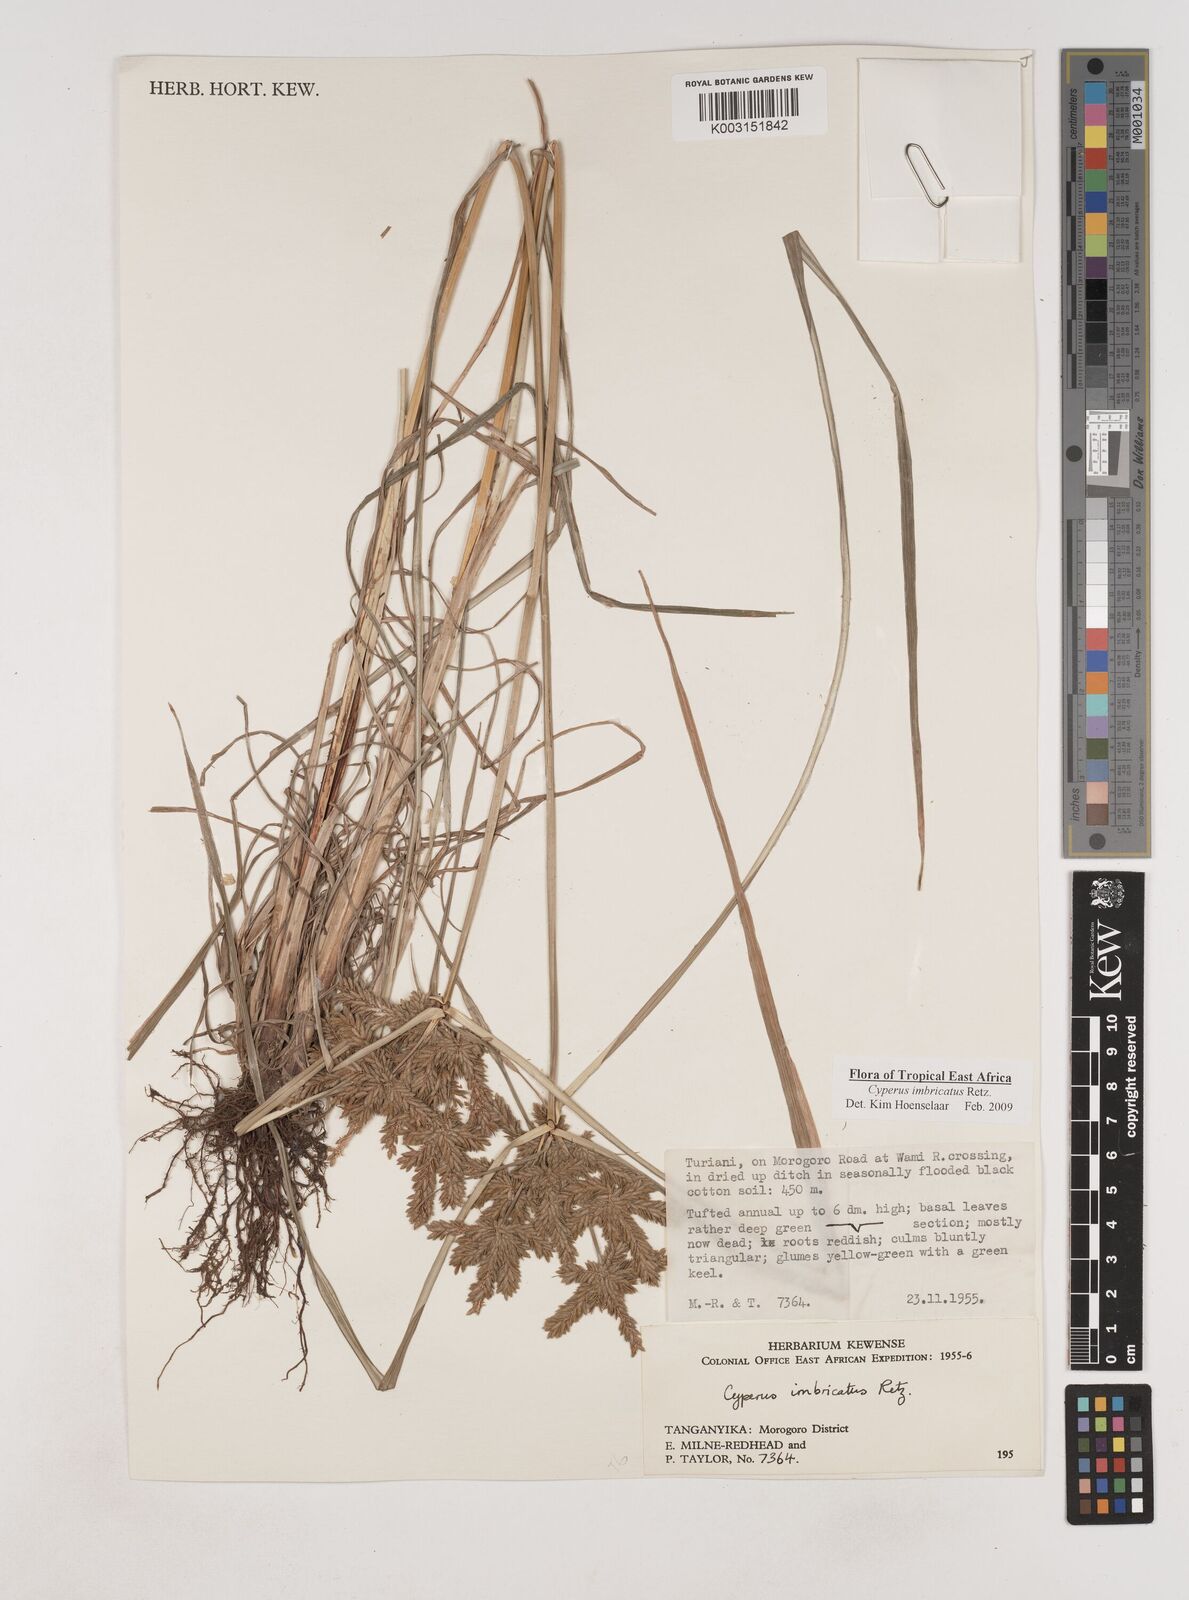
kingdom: Plantae
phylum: Tracheophyta
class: Liliopsida
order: Poales
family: Cyperaceae
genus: Cyperus
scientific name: Cyperus imbricatus
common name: Shingle flatsedge
